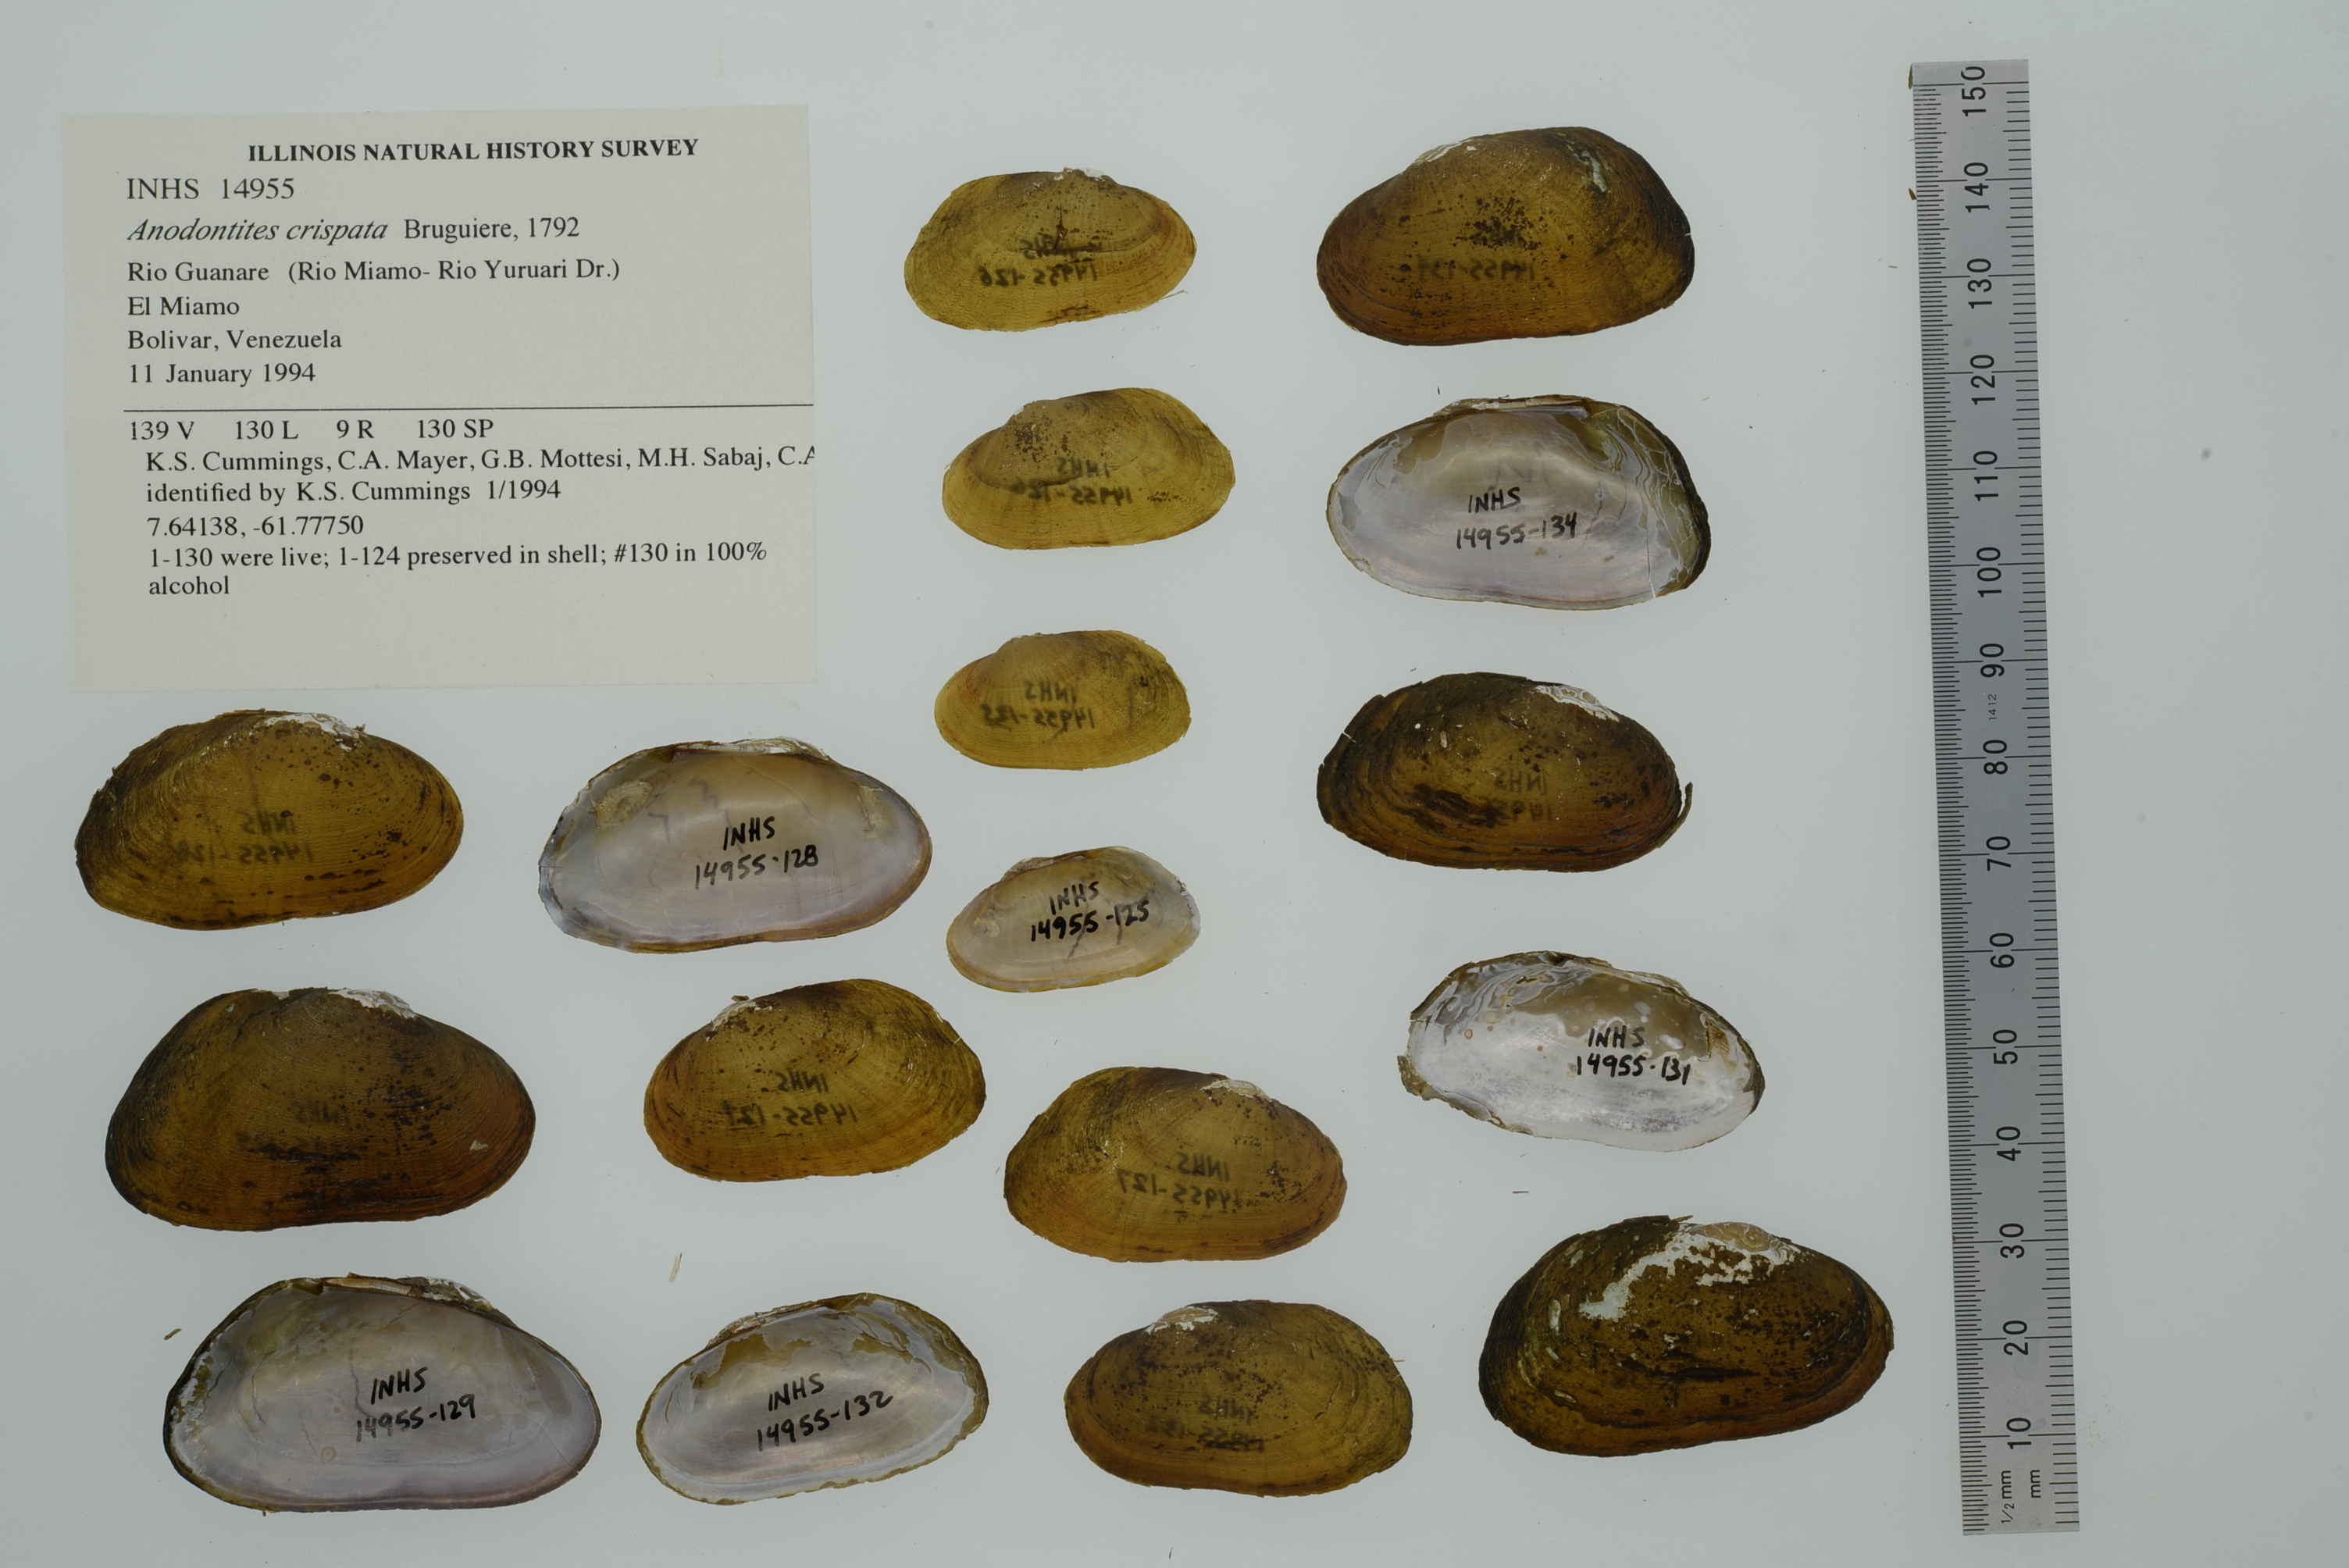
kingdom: Animalia
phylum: Mollusca
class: Bivalvia
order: Unionida
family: Mycetopodidae
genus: Anodontites
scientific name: Anodontites crispata
